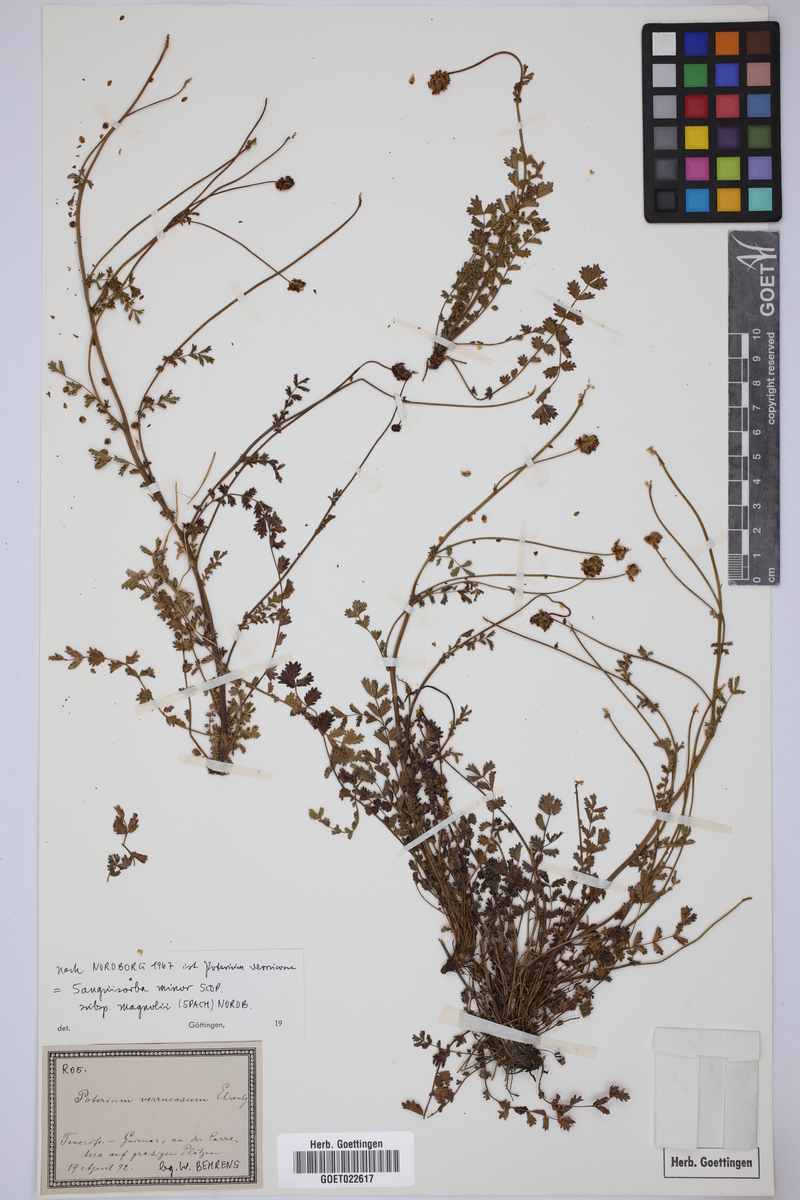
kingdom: Plantae
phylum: Tracheophyta
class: Magnoliopsida
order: Rosales
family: Rosaceae
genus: Poterium
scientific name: Poterium verrucosum
